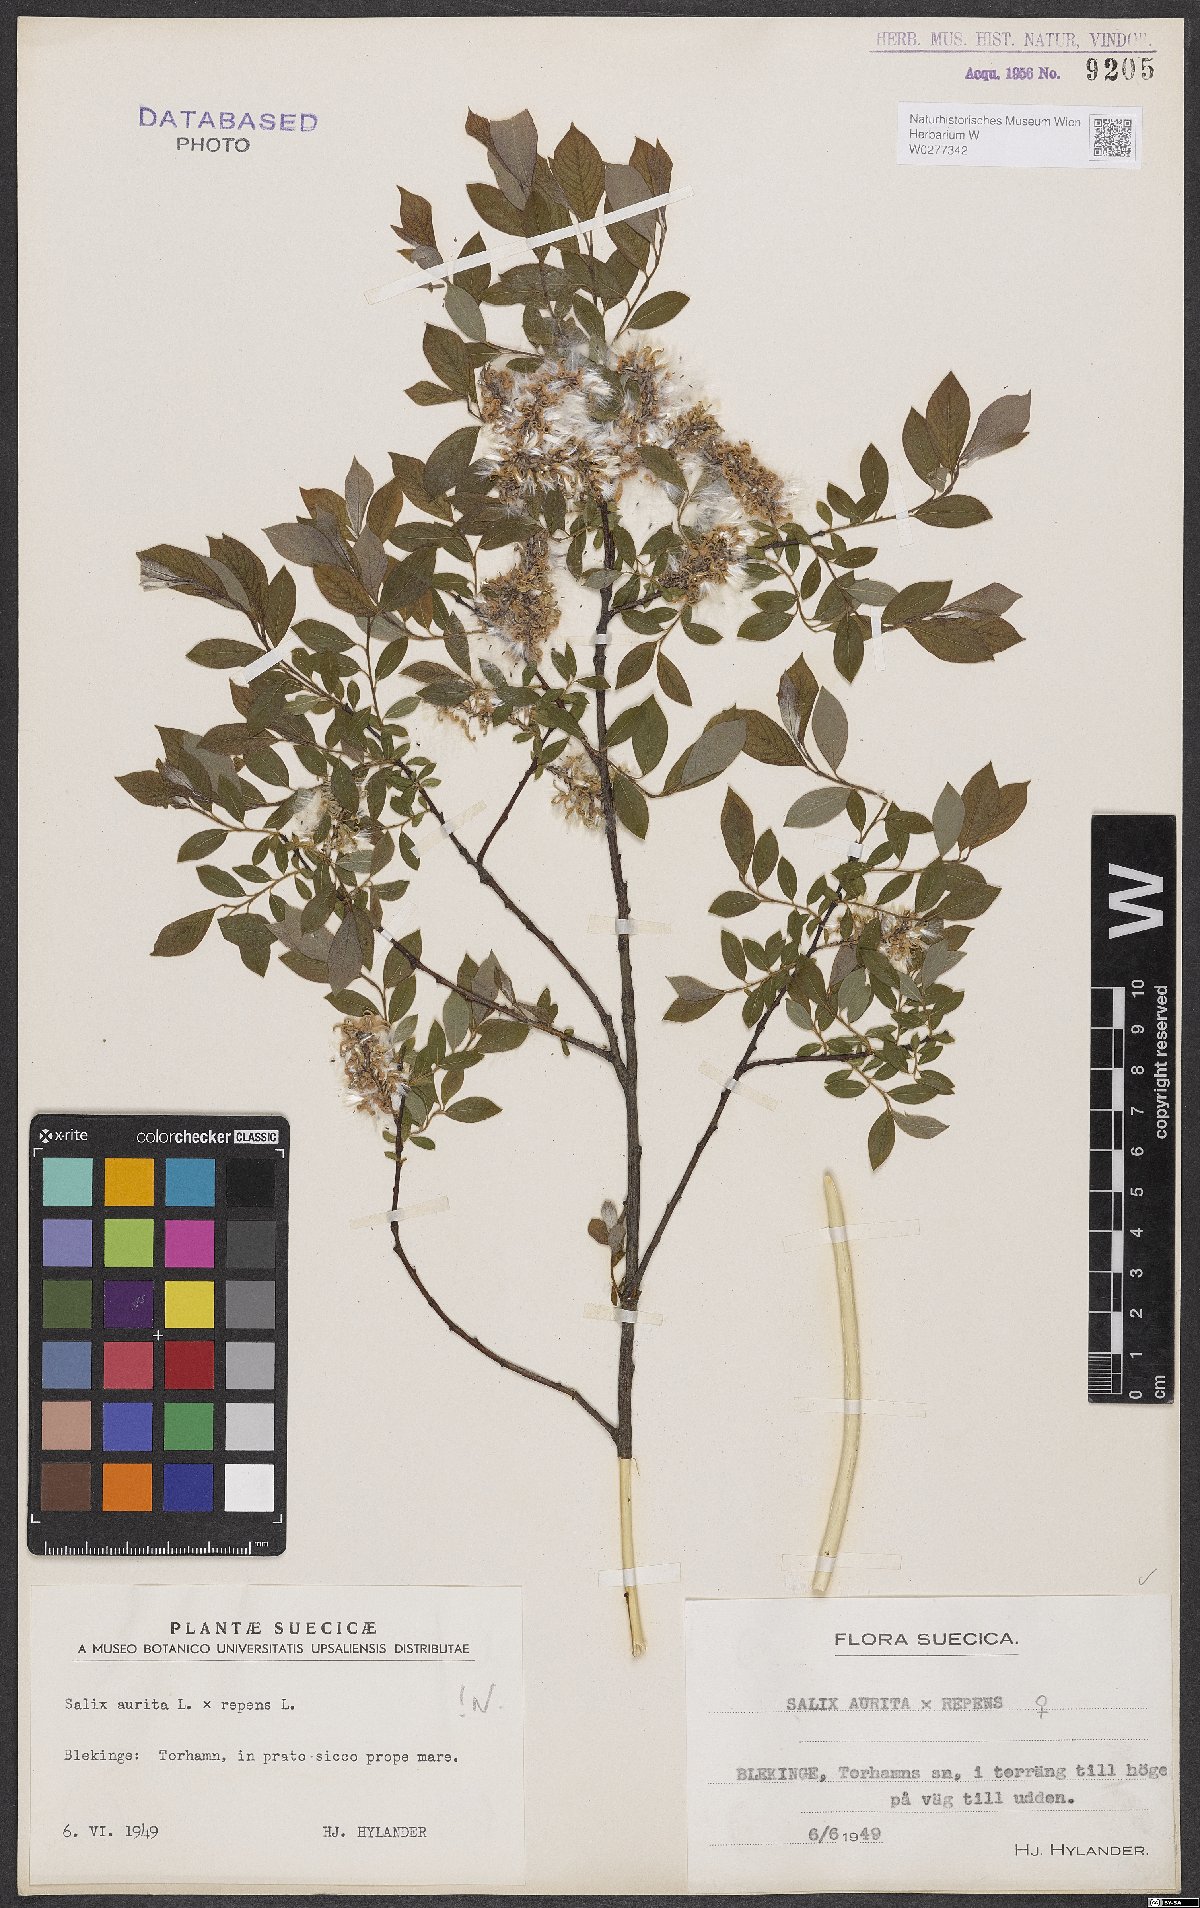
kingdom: Plantae
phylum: Tracheophyta
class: Magnoliopsida
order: Malpighiales
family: Salicaceae
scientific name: Salicaceae
